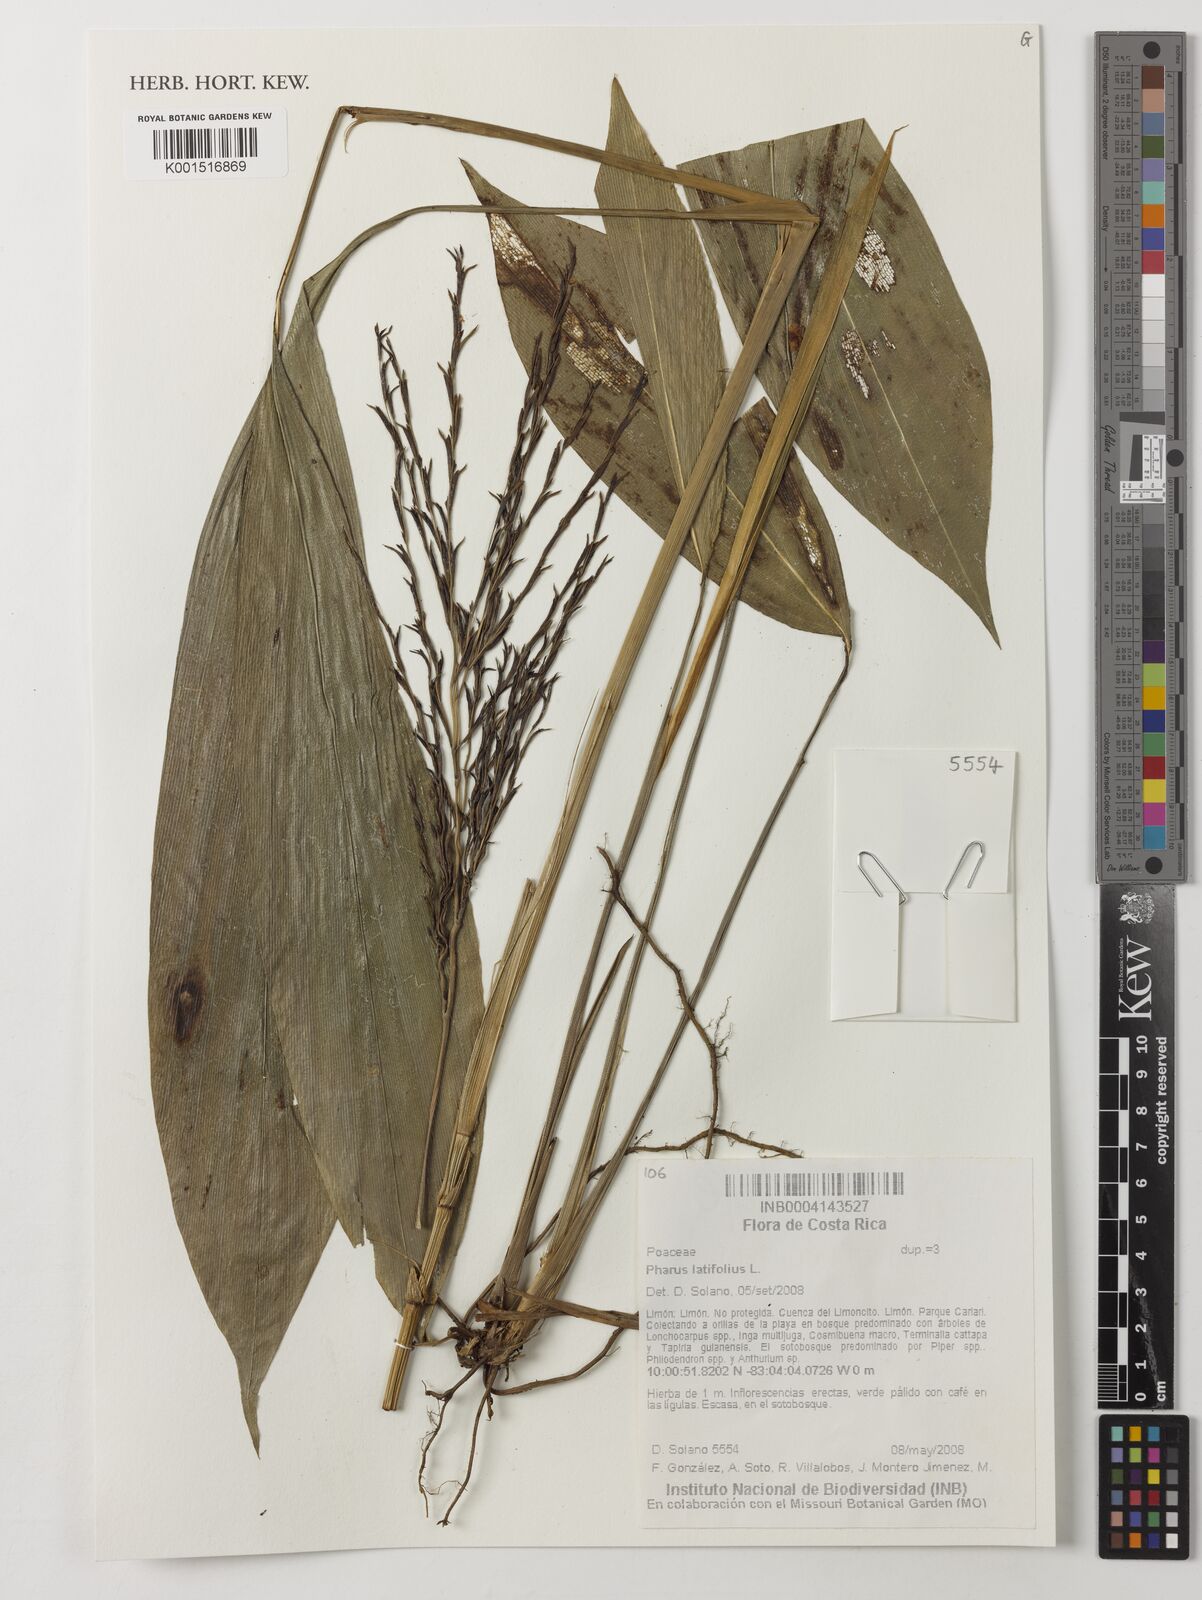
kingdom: Plantae
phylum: Tracheophyta
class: Liliopsida
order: Poales
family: Poaceae
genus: Pharus
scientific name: Pharus latifolius
